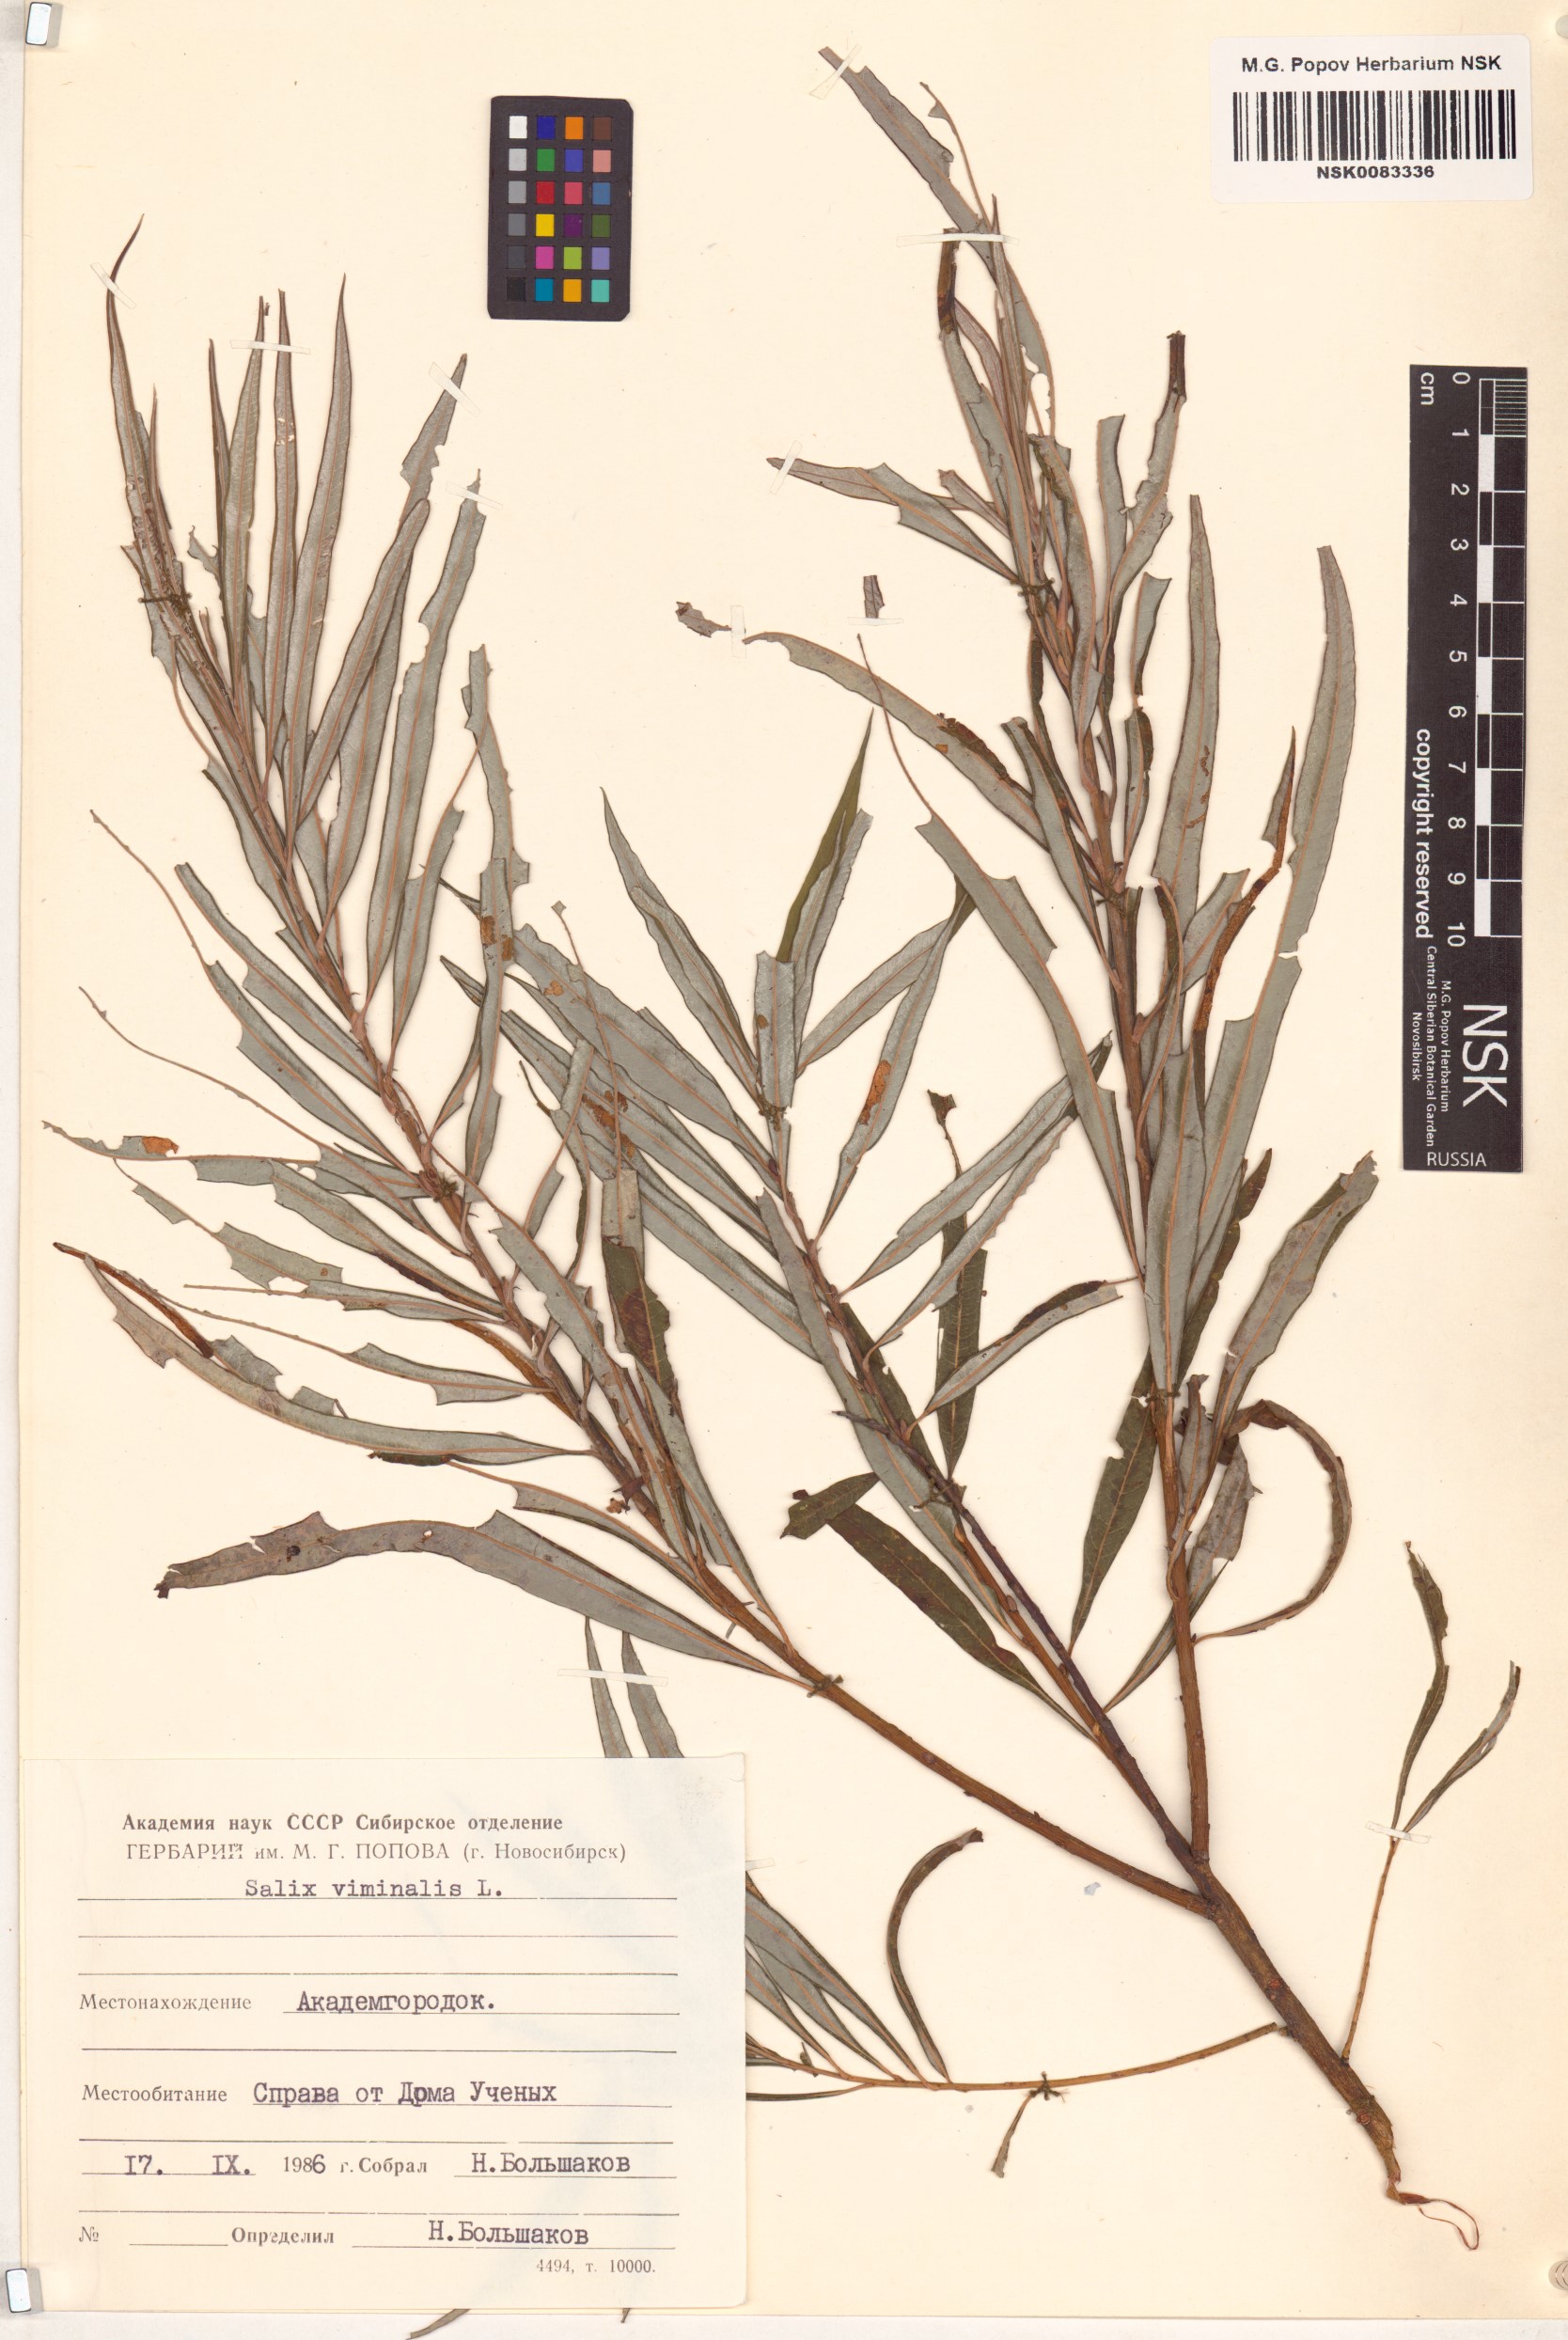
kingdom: Plantae
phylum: Tracheophyta
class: Magnoliopsida
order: Malpighiales
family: Salicaceae
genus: Salix
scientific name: Salix viminalis
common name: Osier
